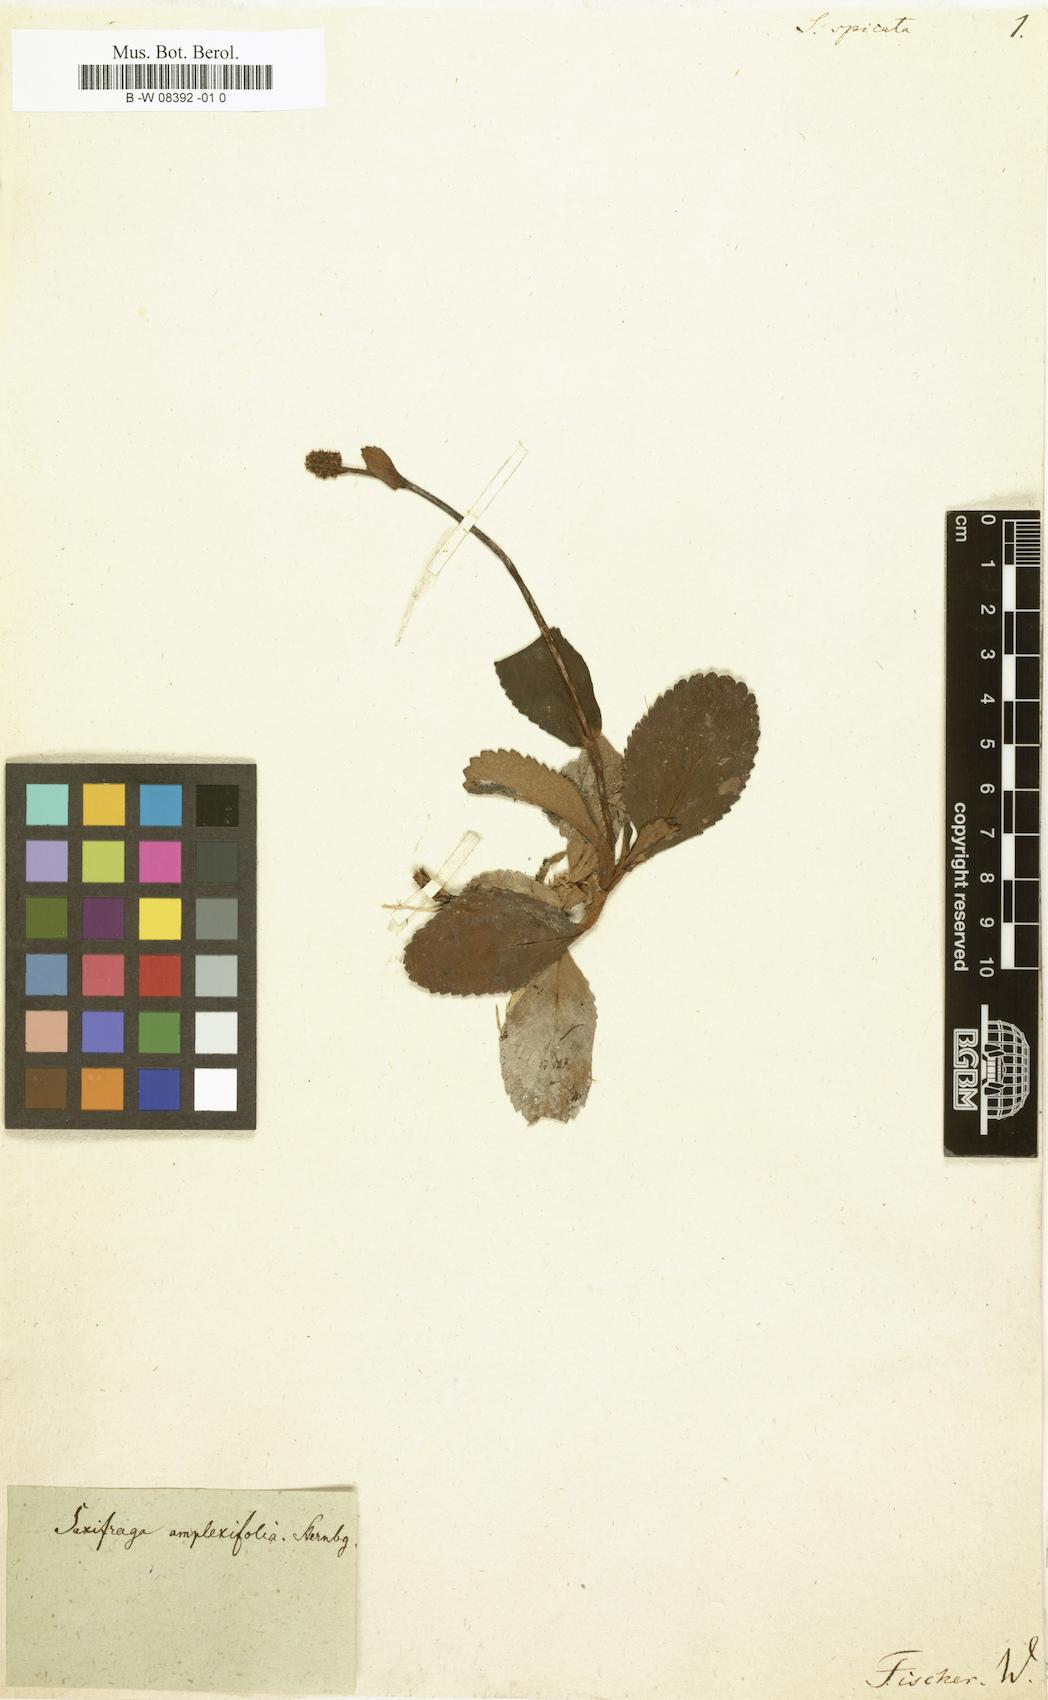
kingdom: Plantae
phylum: Tracheophyta
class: Magnoliopsida
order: Saxifragales
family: Saxifragaceae
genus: Micranthes
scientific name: Micranthes spicata
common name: Spiked saxifrage
